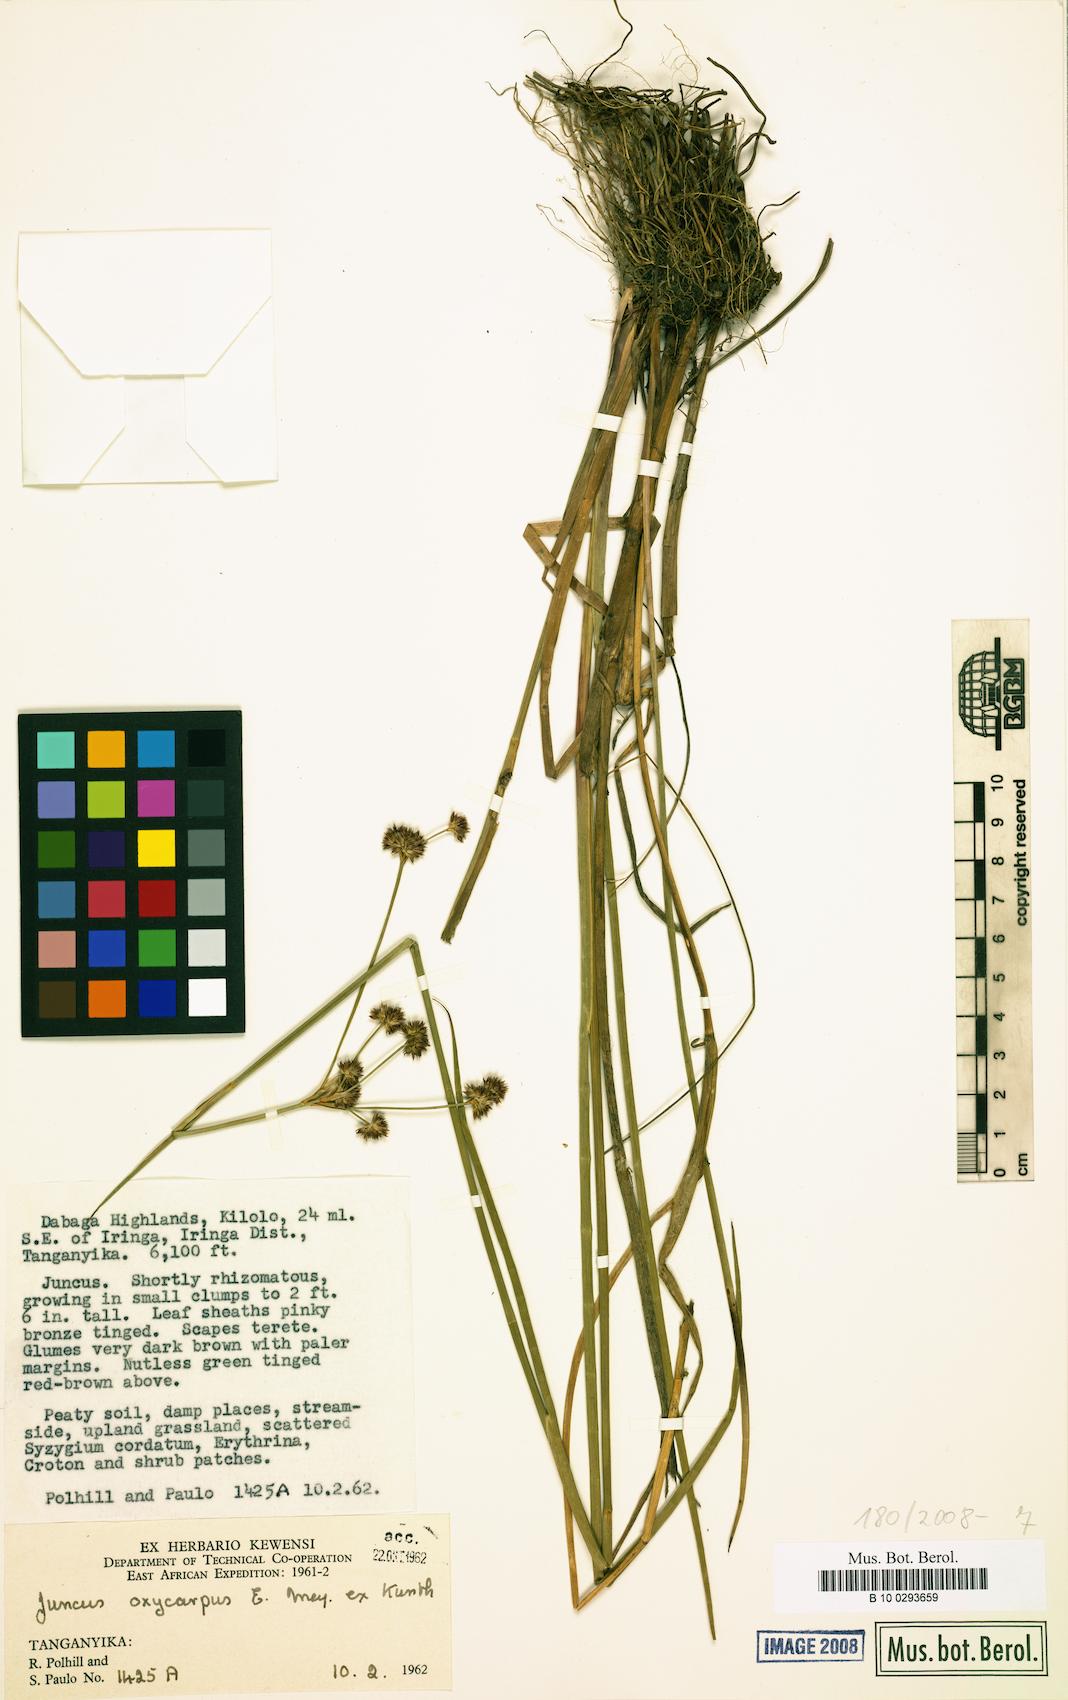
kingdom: Plantae
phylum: Tracheophyta
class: Liliopsida
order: Poales
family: Juncaceae
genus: Juncus
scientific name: Juncus oxycarpus
